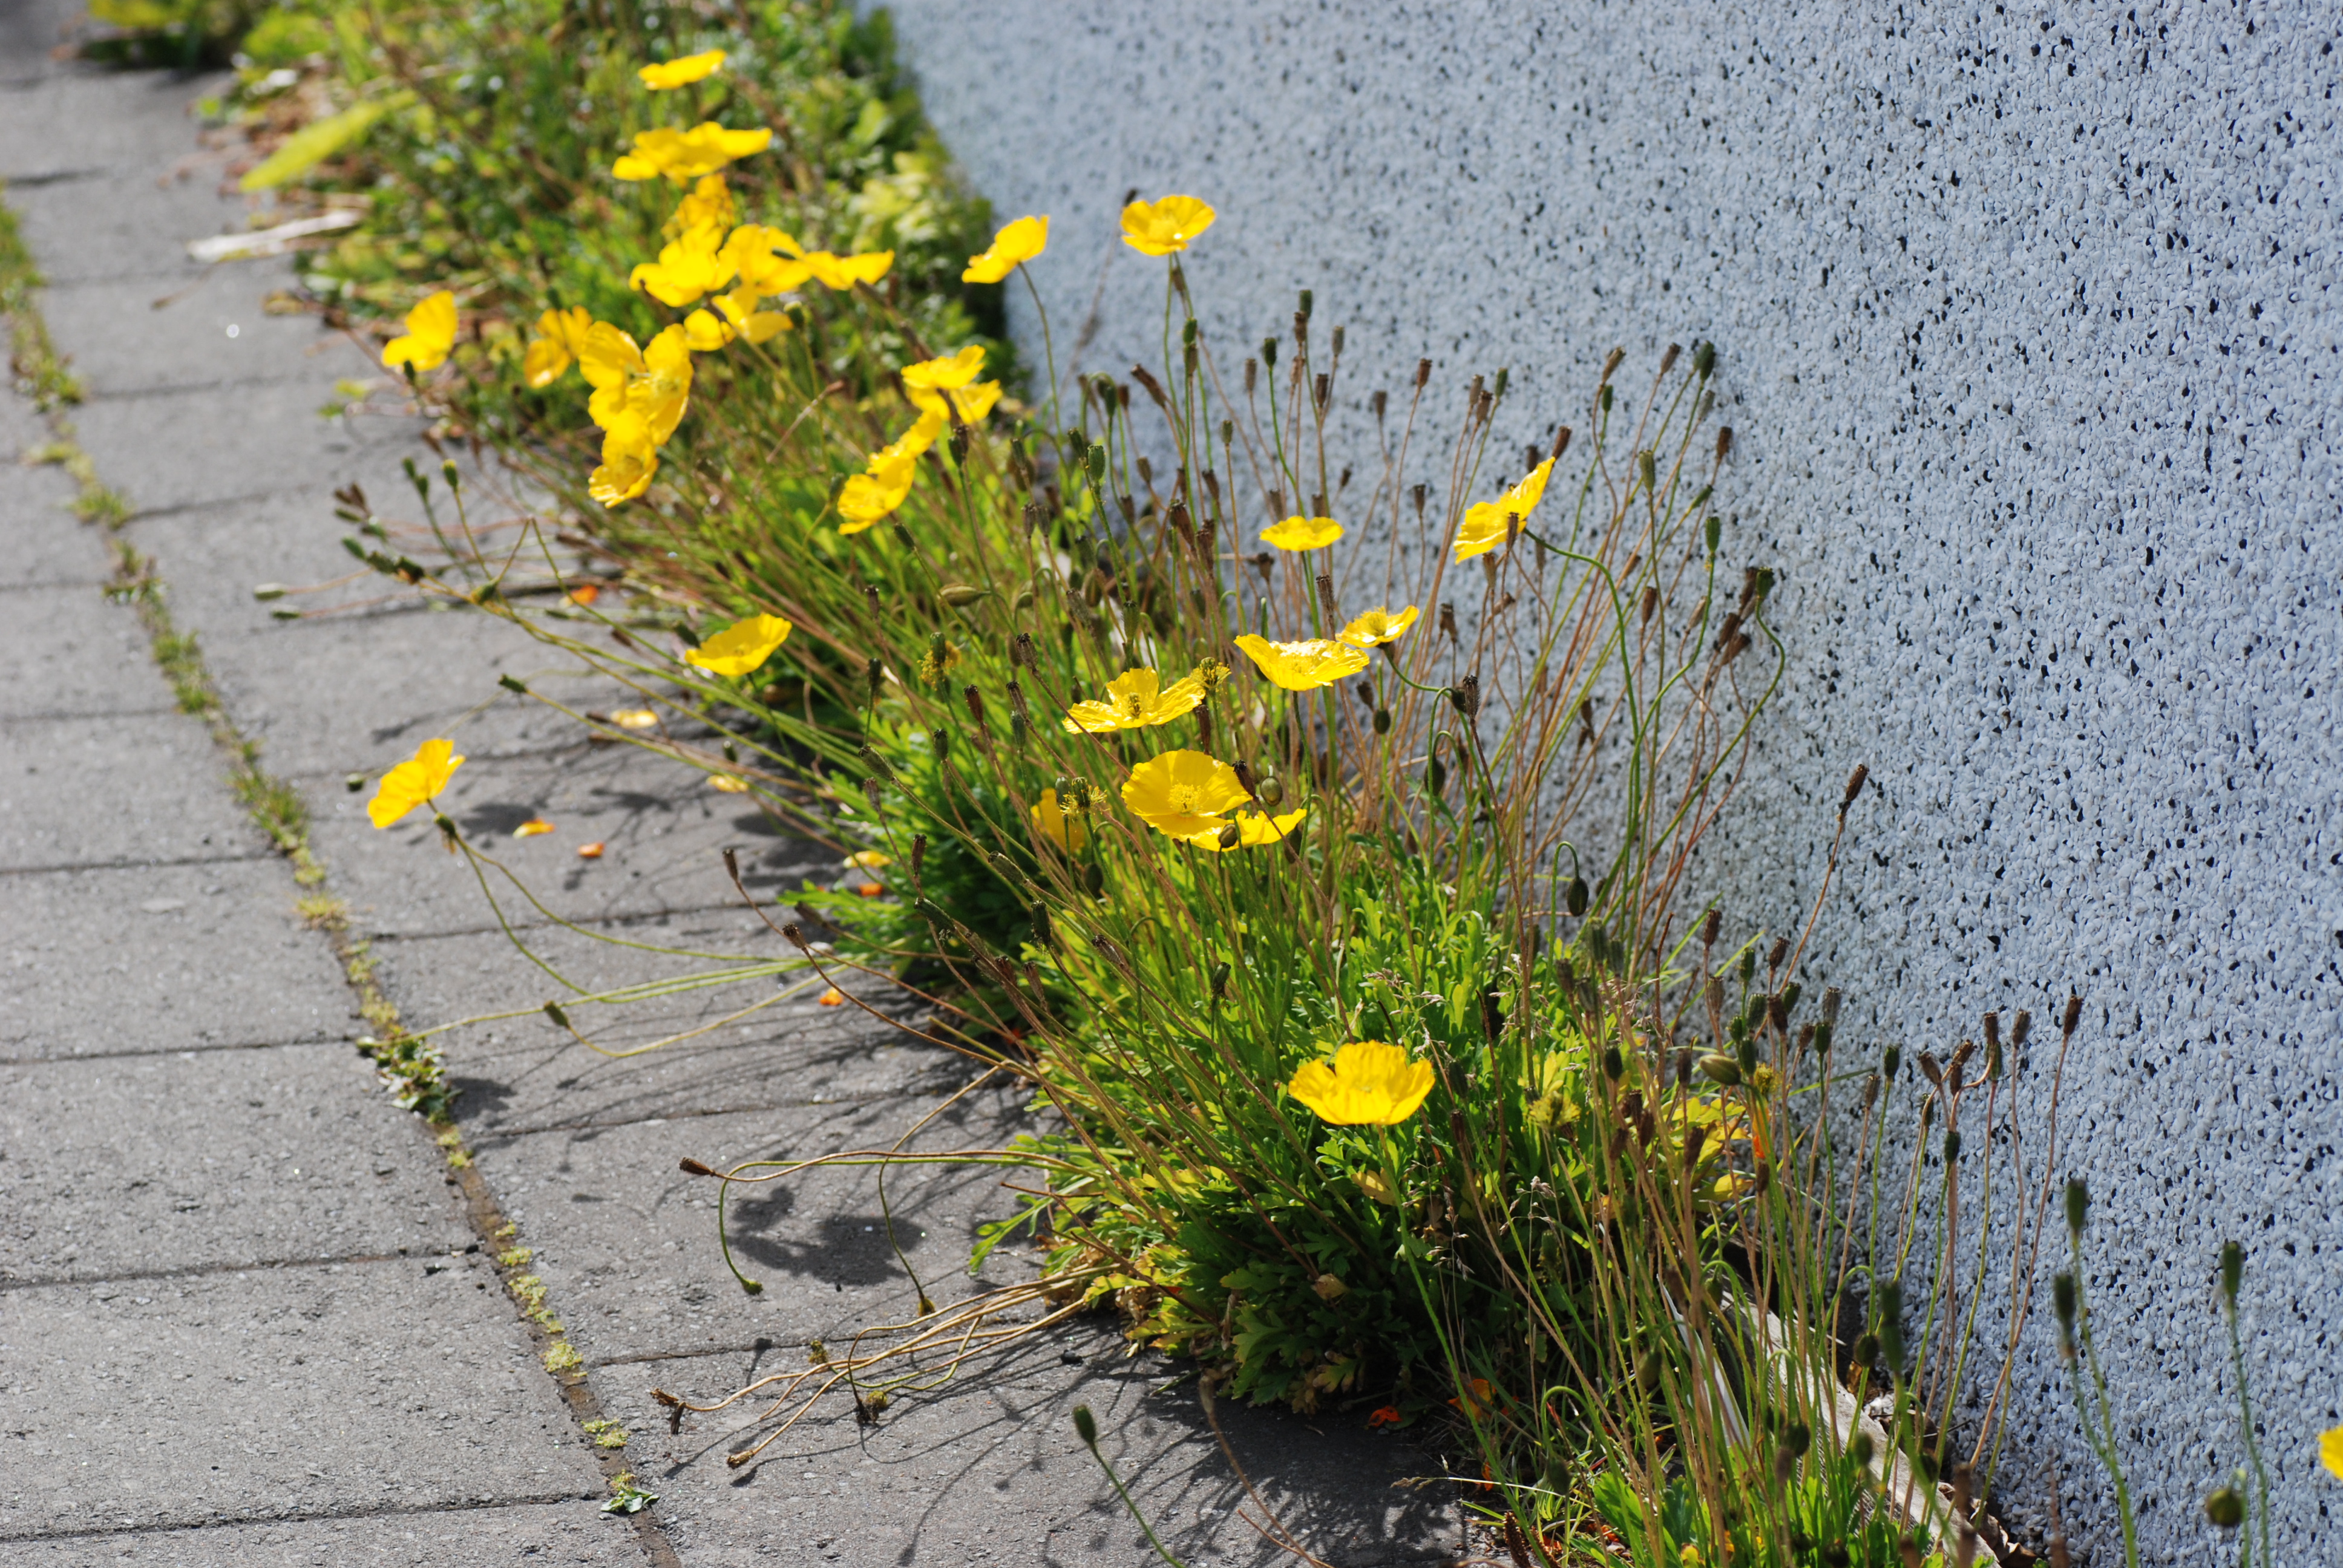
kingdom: Plantae
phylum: Tracheophyta
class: Magnoliopsida
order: Ranunculales
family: Papaveraceae
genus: Papaver
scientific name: Papaver nudicaule
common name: Arctic poppy
